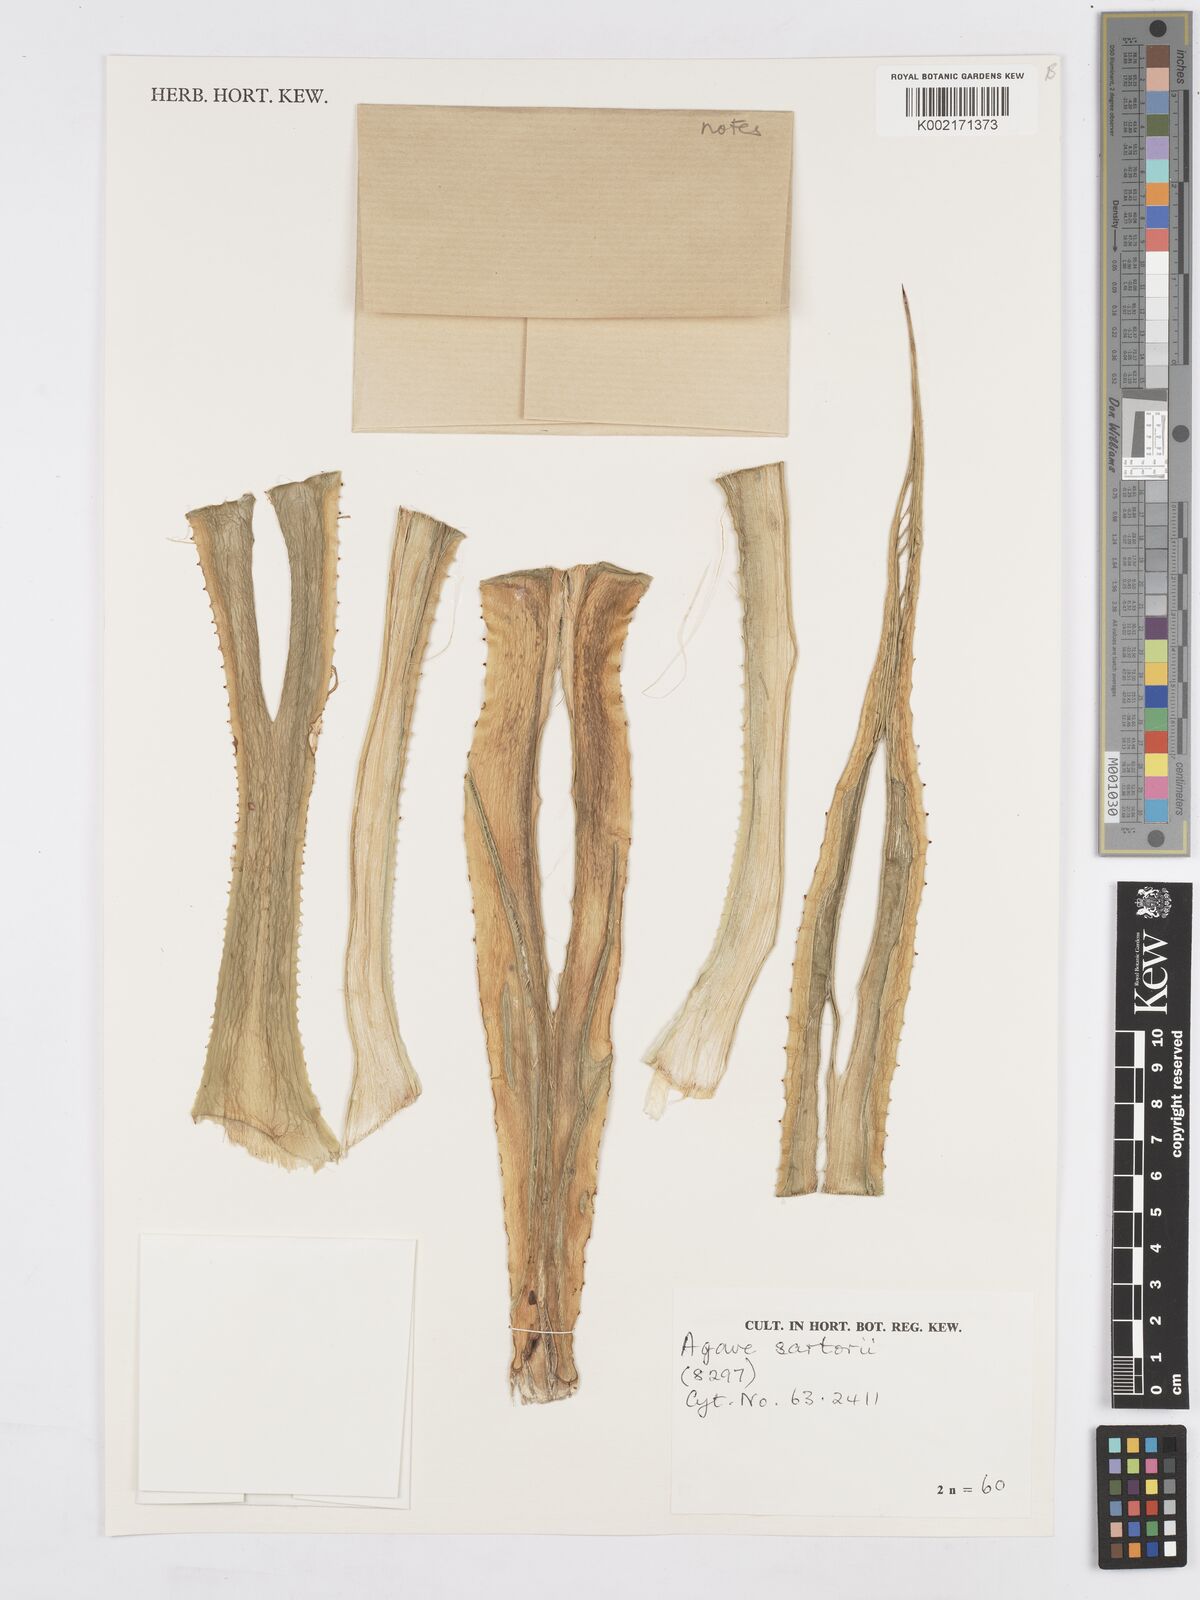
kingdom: Plantae
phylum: Tracheophyta
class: Liliopsida
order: Asparagales
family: Asparagaceae
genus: Agave
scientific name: Agave pendula
